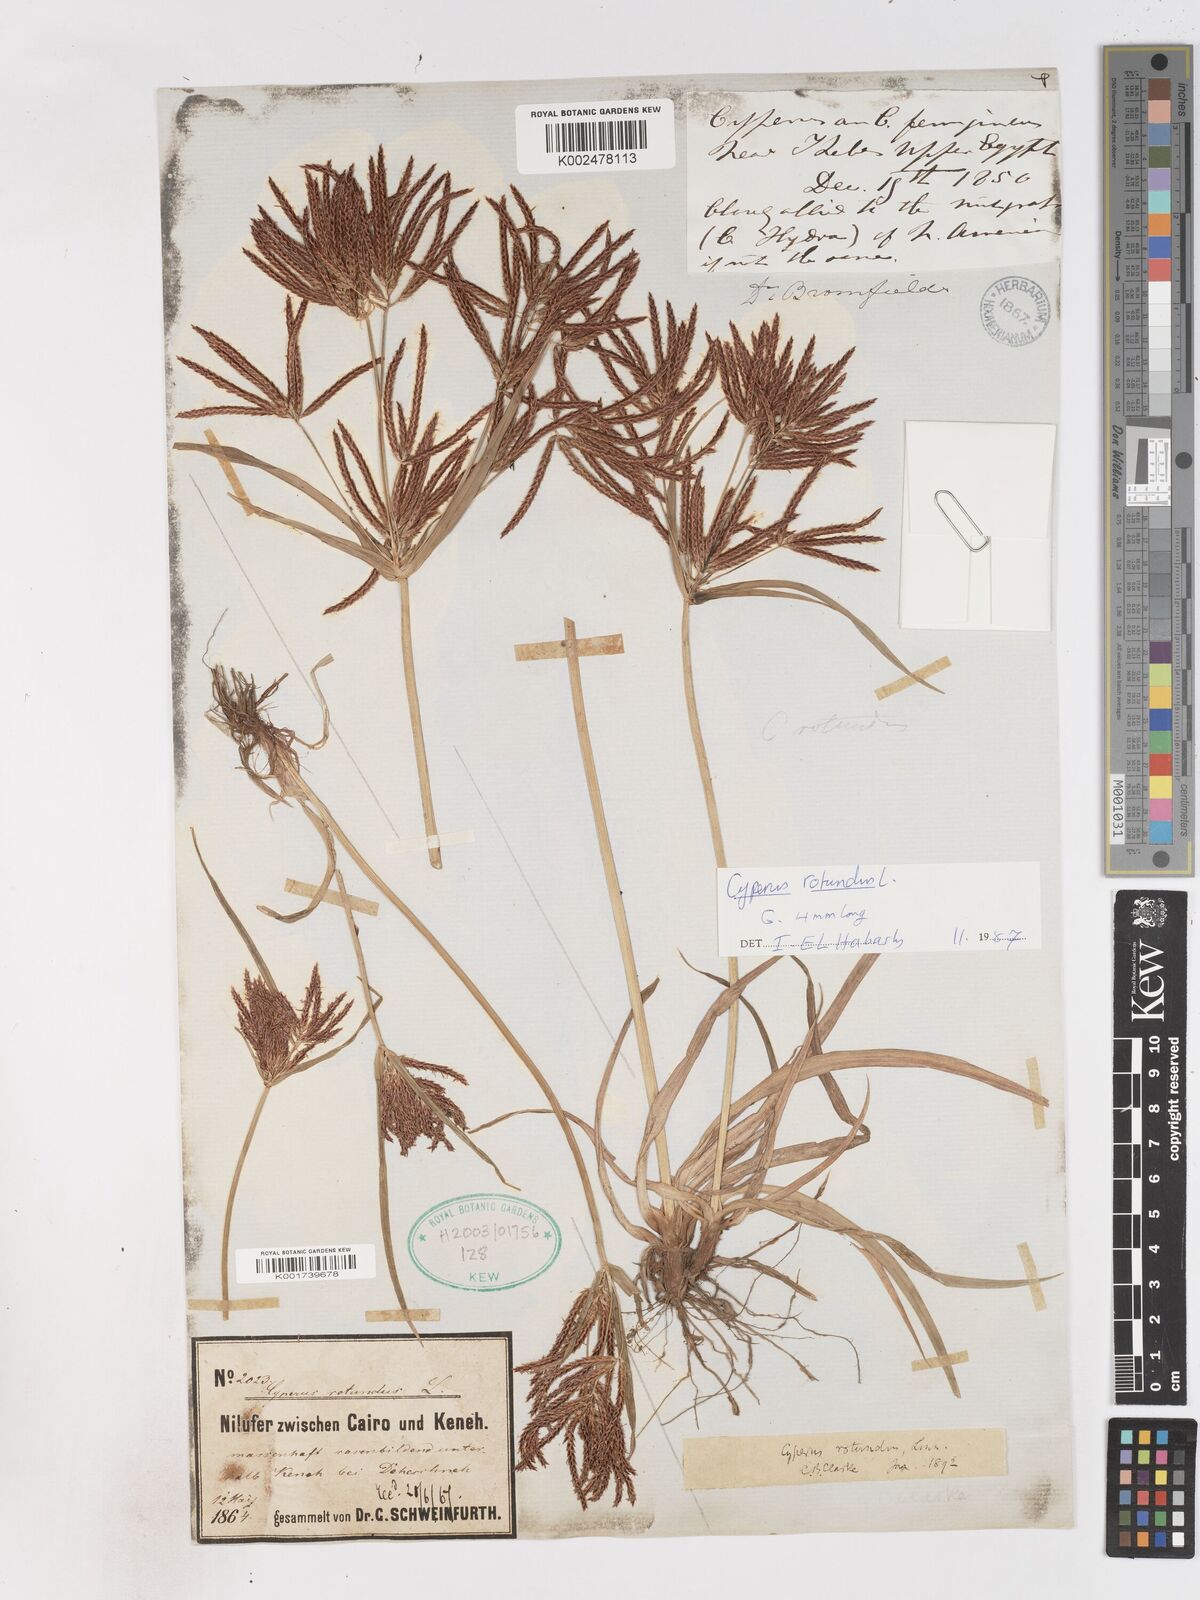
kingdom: Plantae
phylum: Tracheophyta
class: Liliopsida
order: Poales
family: Cyperaceae
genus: Cyperus
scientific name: Cyperus rotundus
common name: Nutgrass
